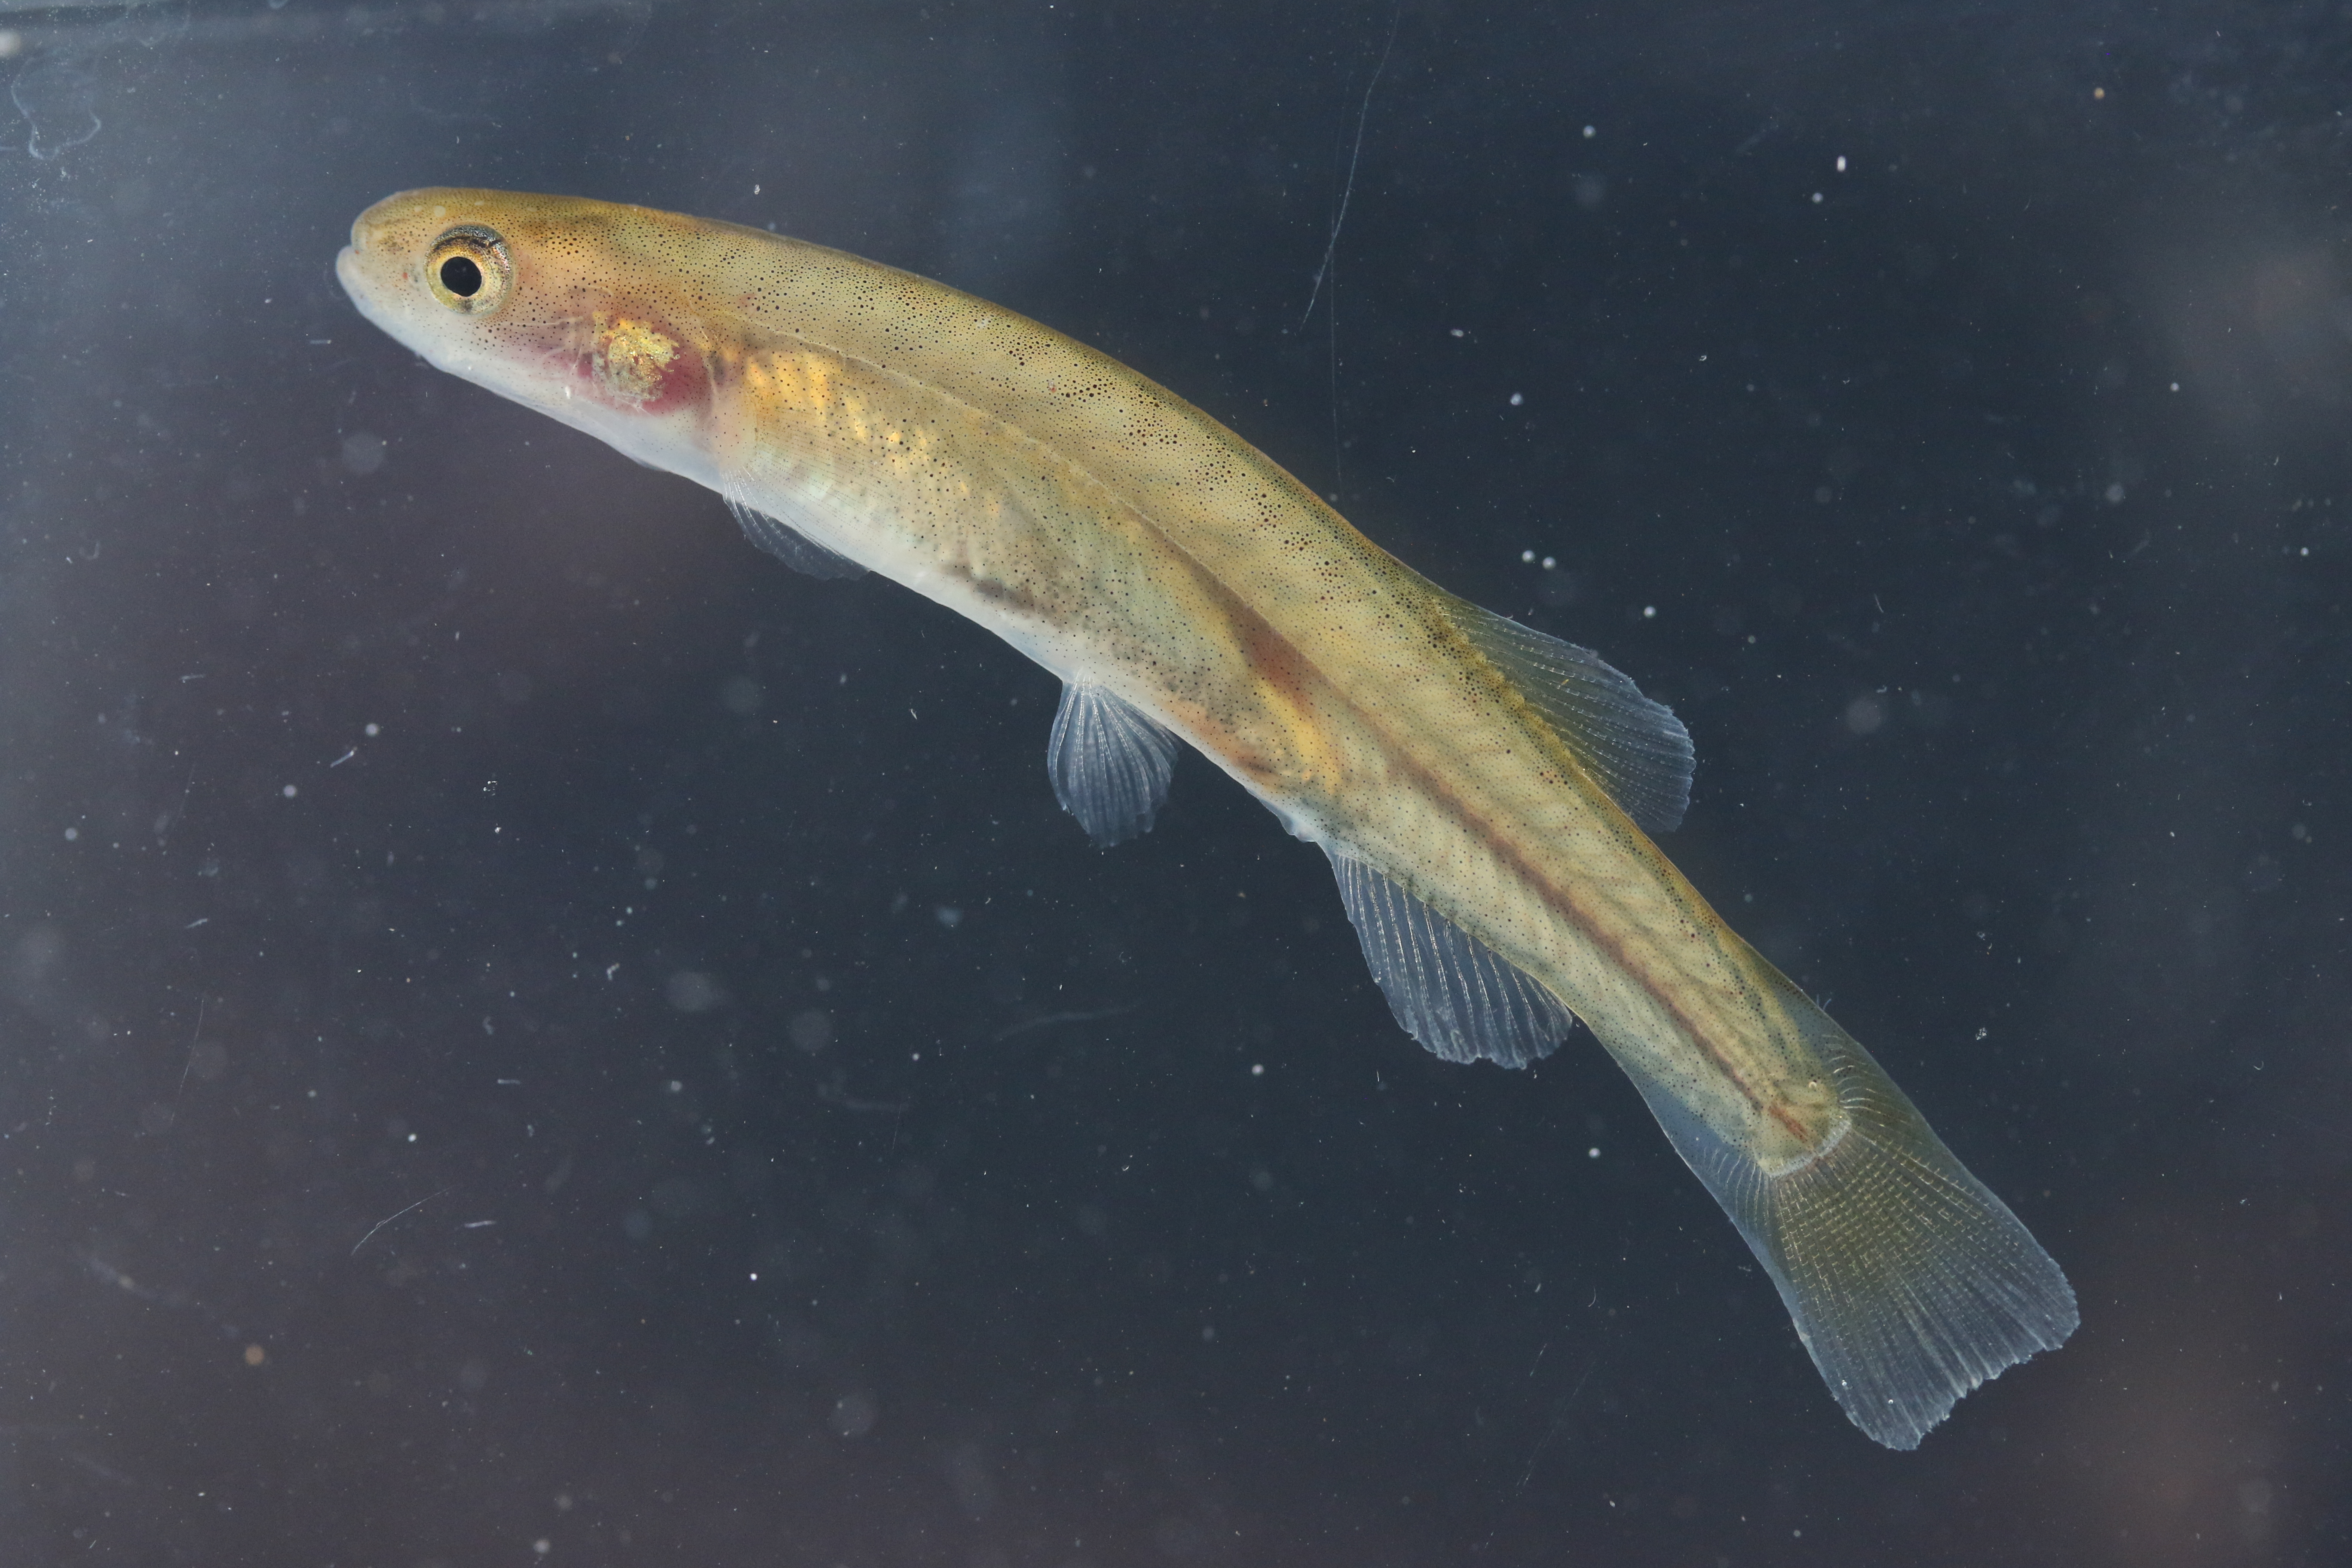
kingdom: Animalia
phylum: Chordata
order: Osmeriformes
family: Galaxiidae
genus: Galaxias
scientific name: Galaxias
